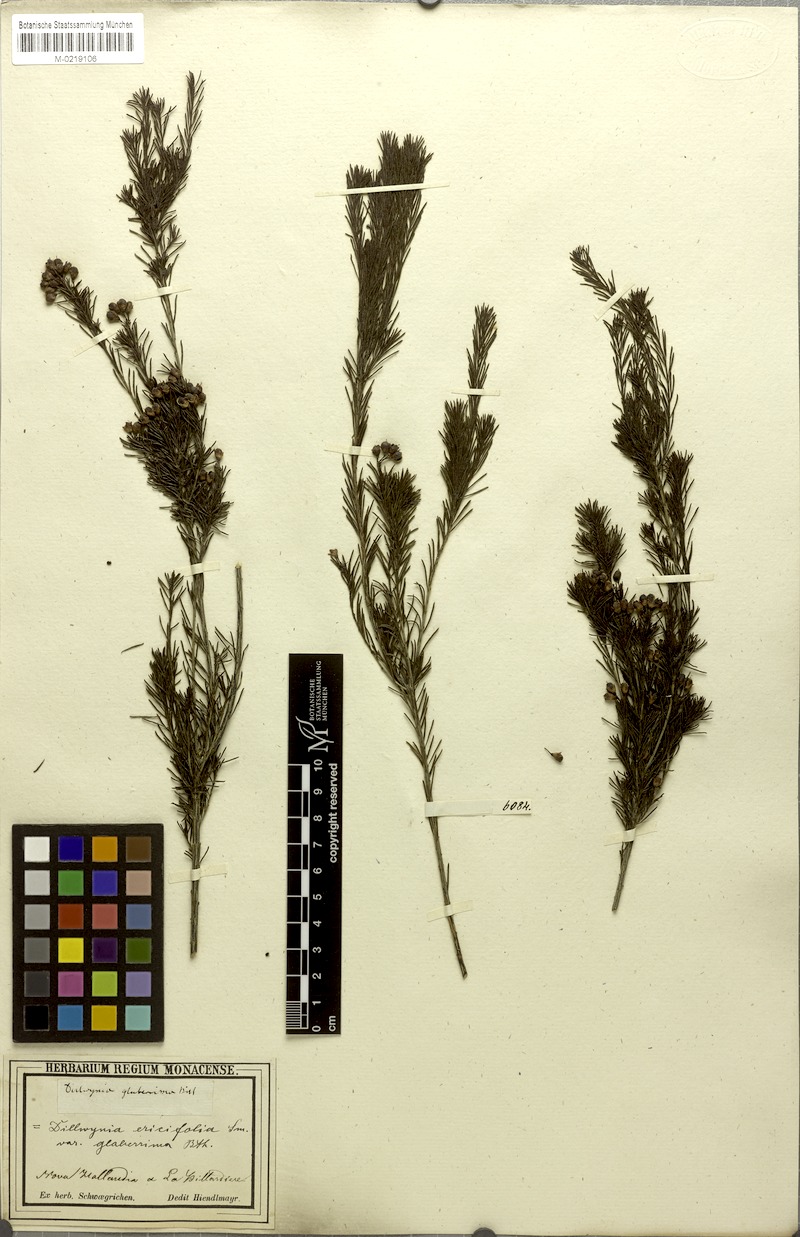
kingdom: Plantae
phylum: Tracheophyta
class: Magnoliopsida
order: Fabales
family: Fabaceae
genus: Dillwynia
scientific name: Dillwynia glaberrima
